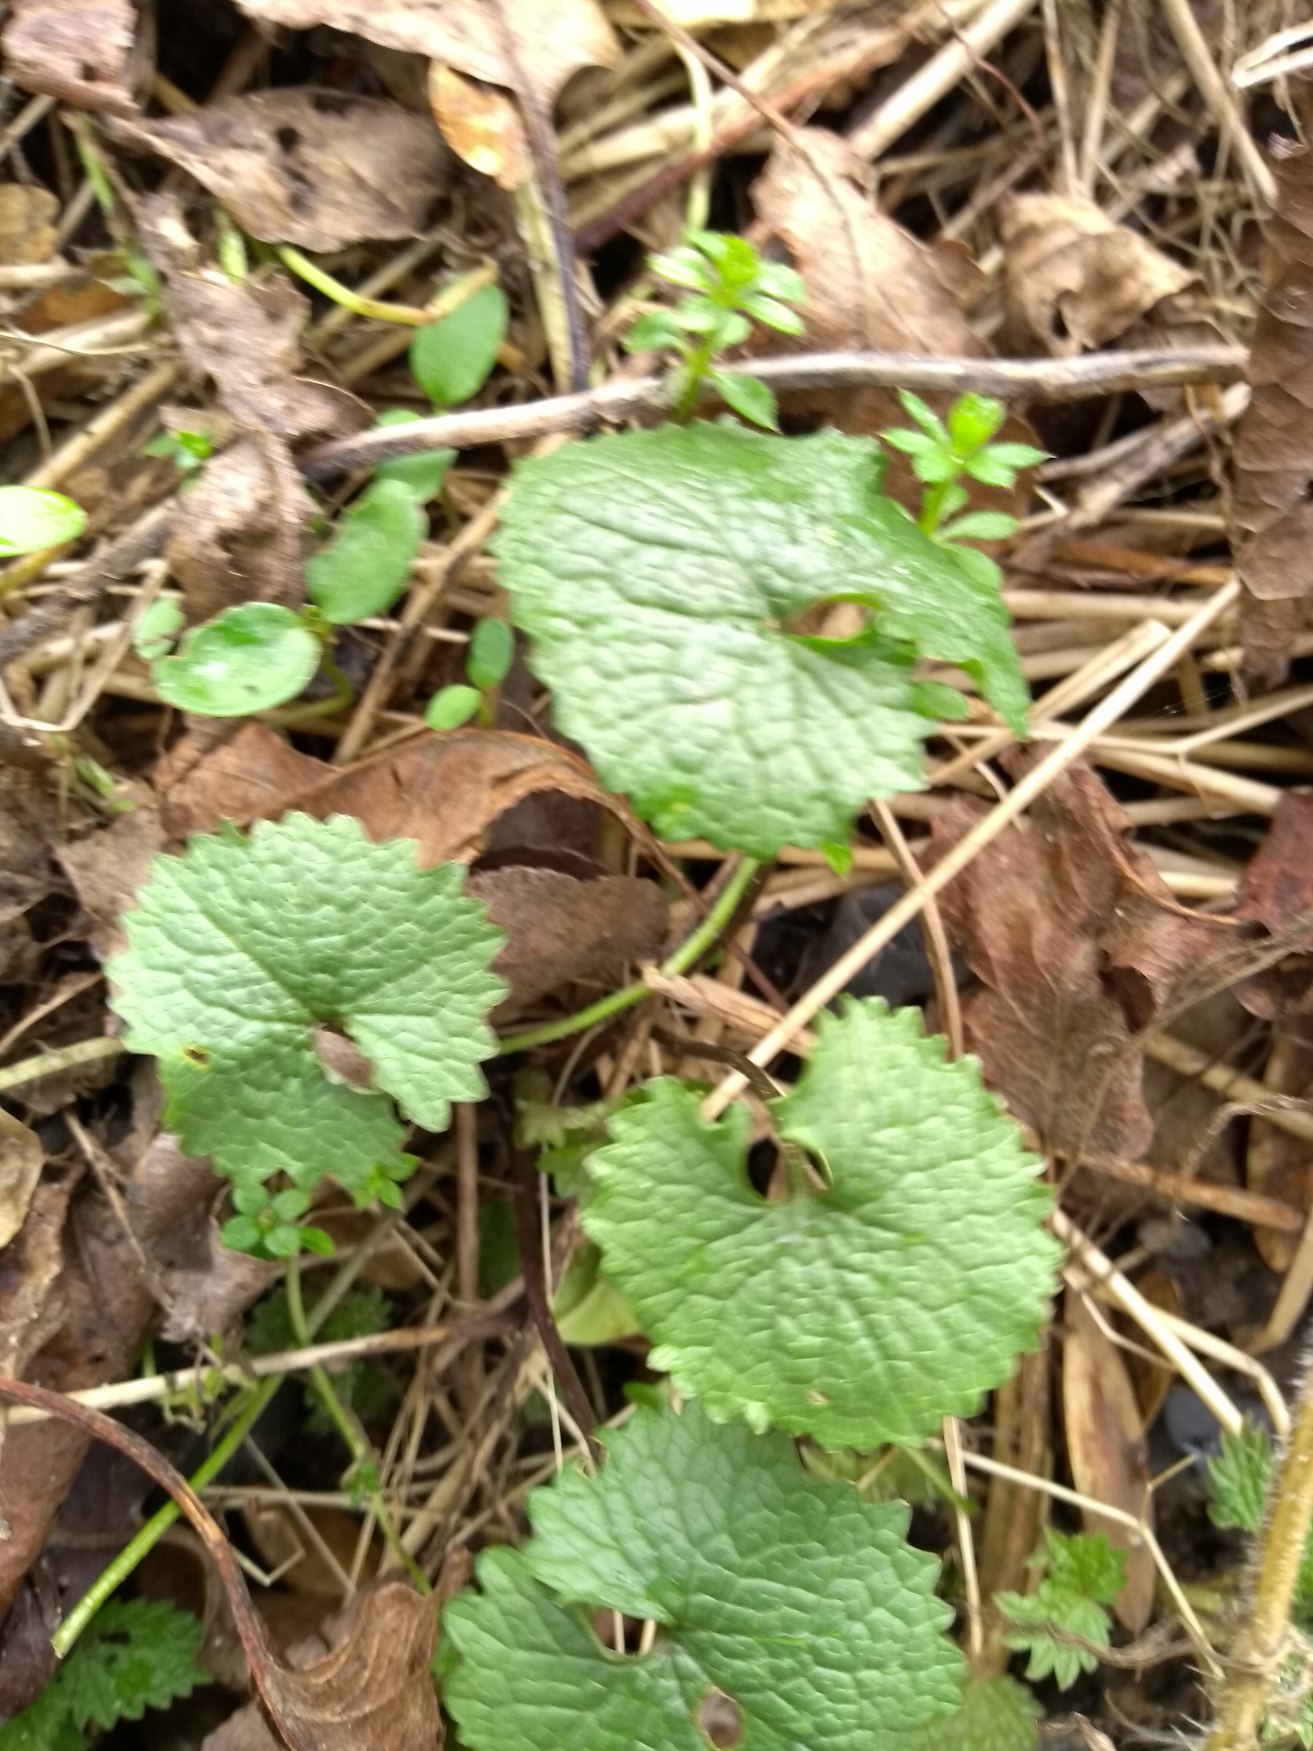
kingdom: Plantae
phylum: Tracheophyta
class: Magnoliopsida
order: Brassicales
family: Brassicaceae
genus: Alliaria
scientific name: Alliaria petiolata
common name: Løgkarse
